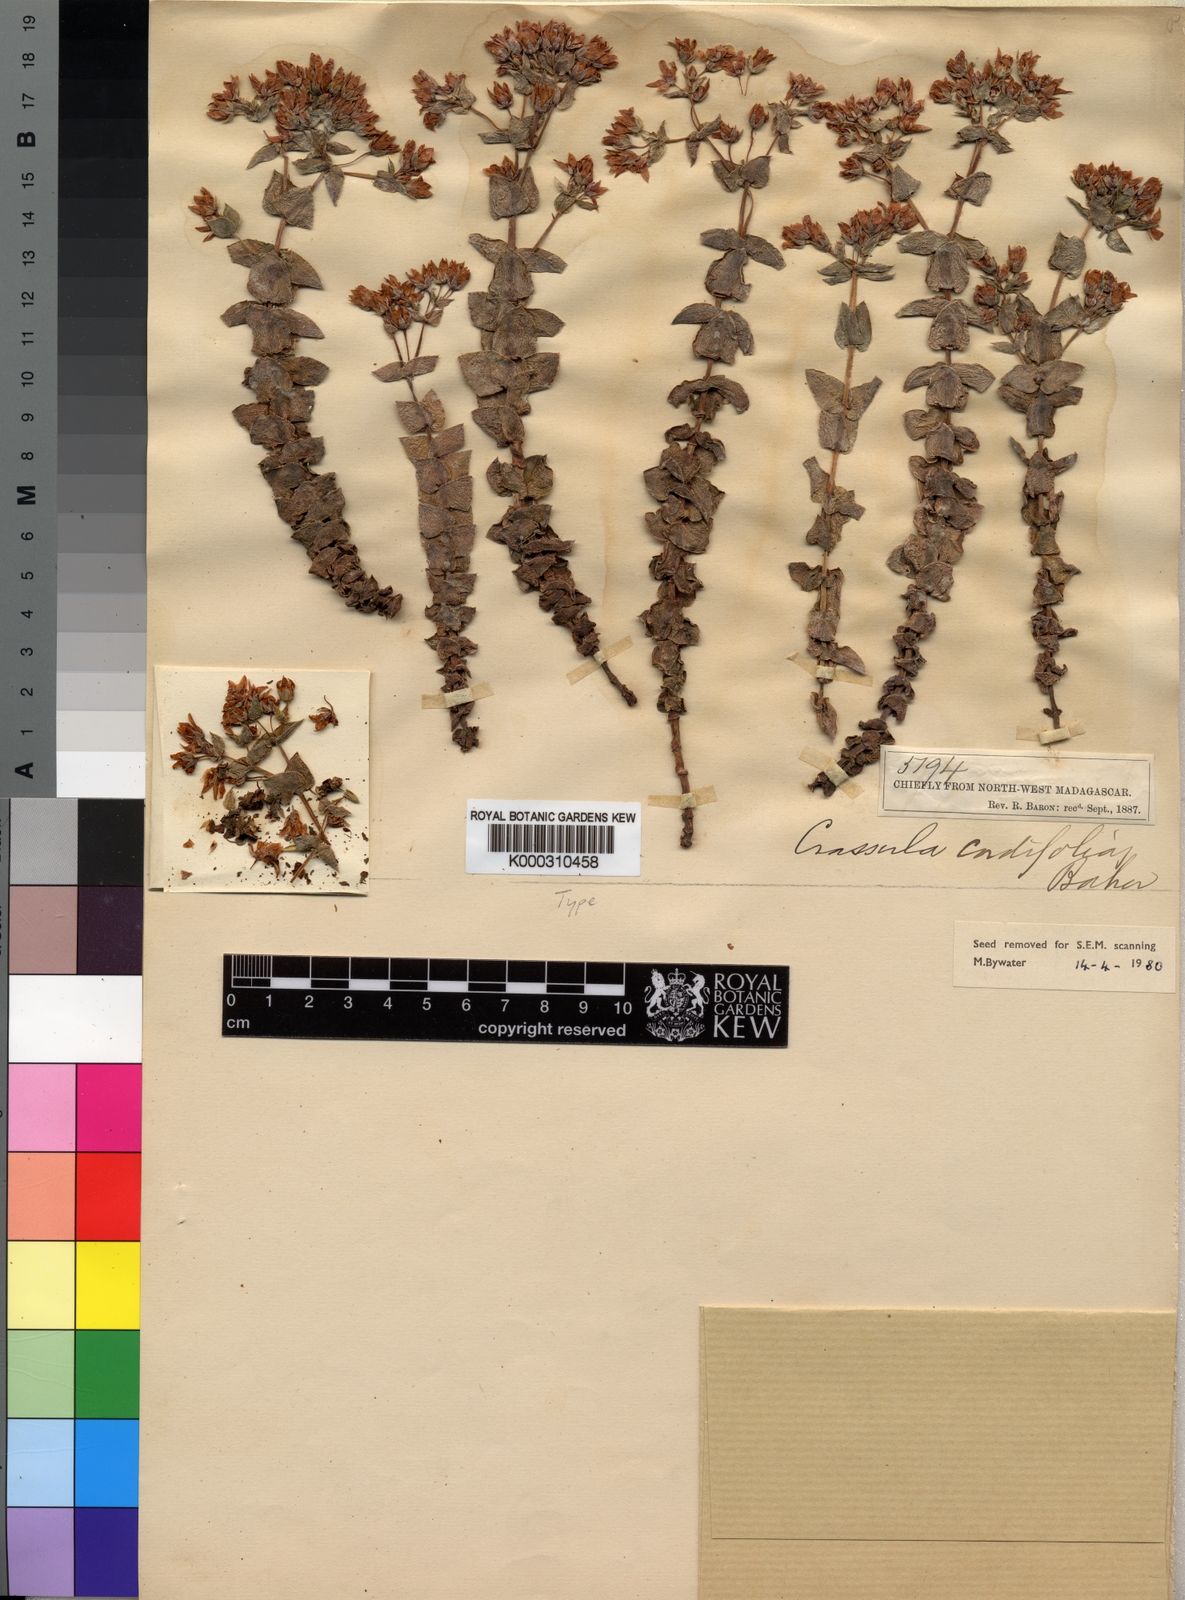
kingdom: Plantae
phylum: Tracheophyta
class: Magnoliopsida
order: Saxifragales
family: Crassulaceae
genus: Crassula
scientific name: Crassula cordifolia
